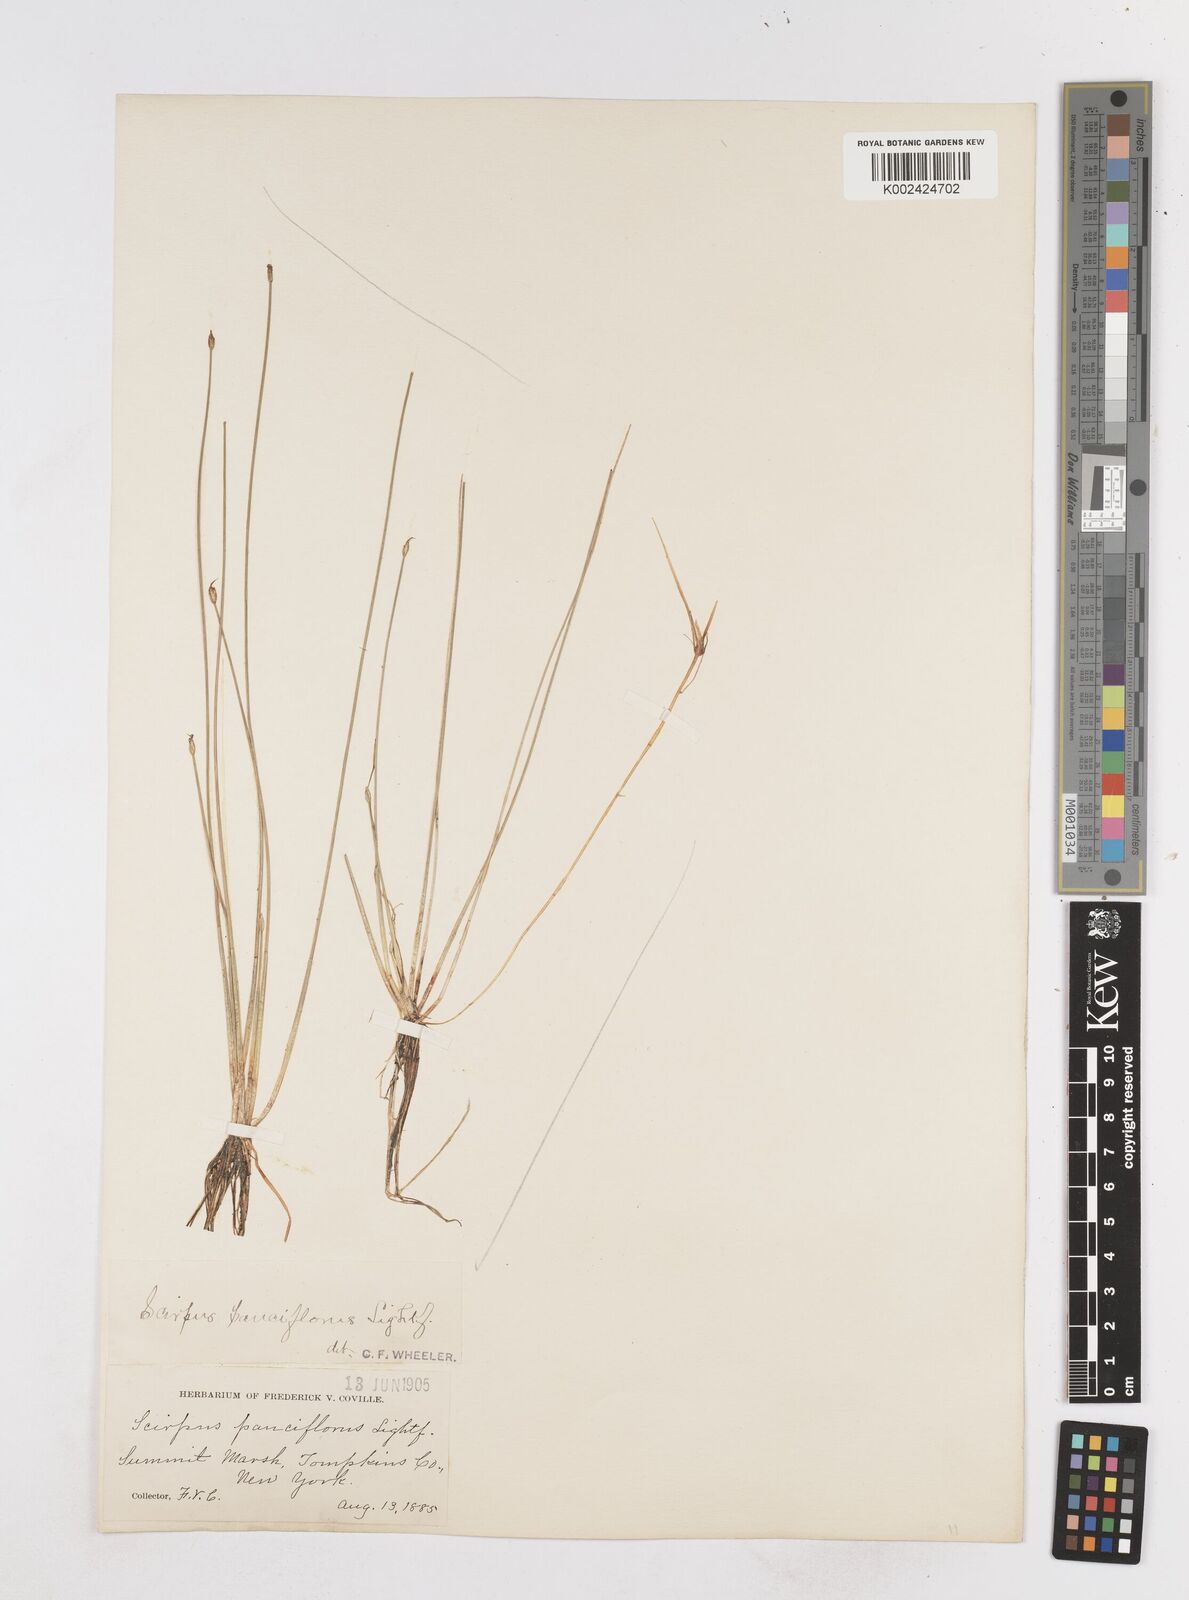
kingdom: Plantae
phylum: Tracheophyta
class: Liliopsida
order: Poales
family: Cyperaceae
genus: Eleocharis
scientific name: Eleocharis quinqueflora
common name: Few-flowered spike-rush
